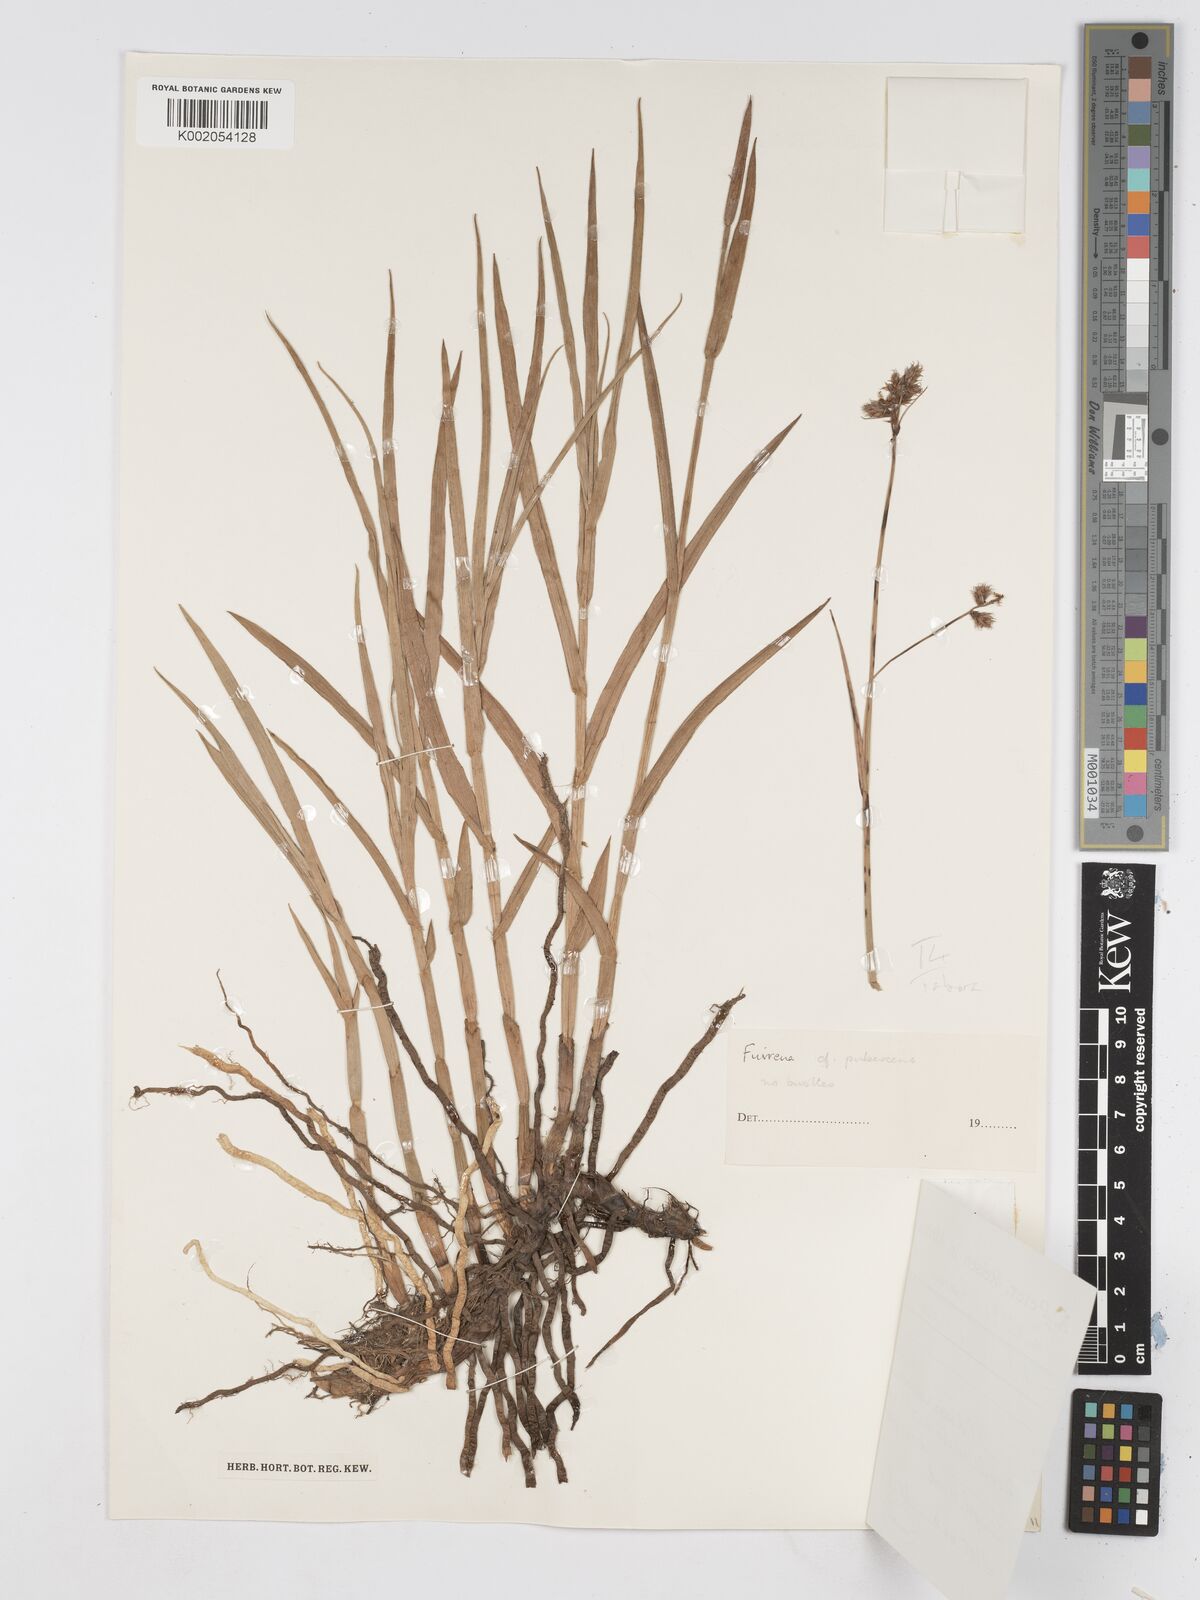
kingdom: Plantae
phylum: Tracheophyta
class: Liliopsida
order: Poales
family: Cyperaceae
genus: Fuirena
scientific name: Fuirena pubescens
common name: Hairy sedge
